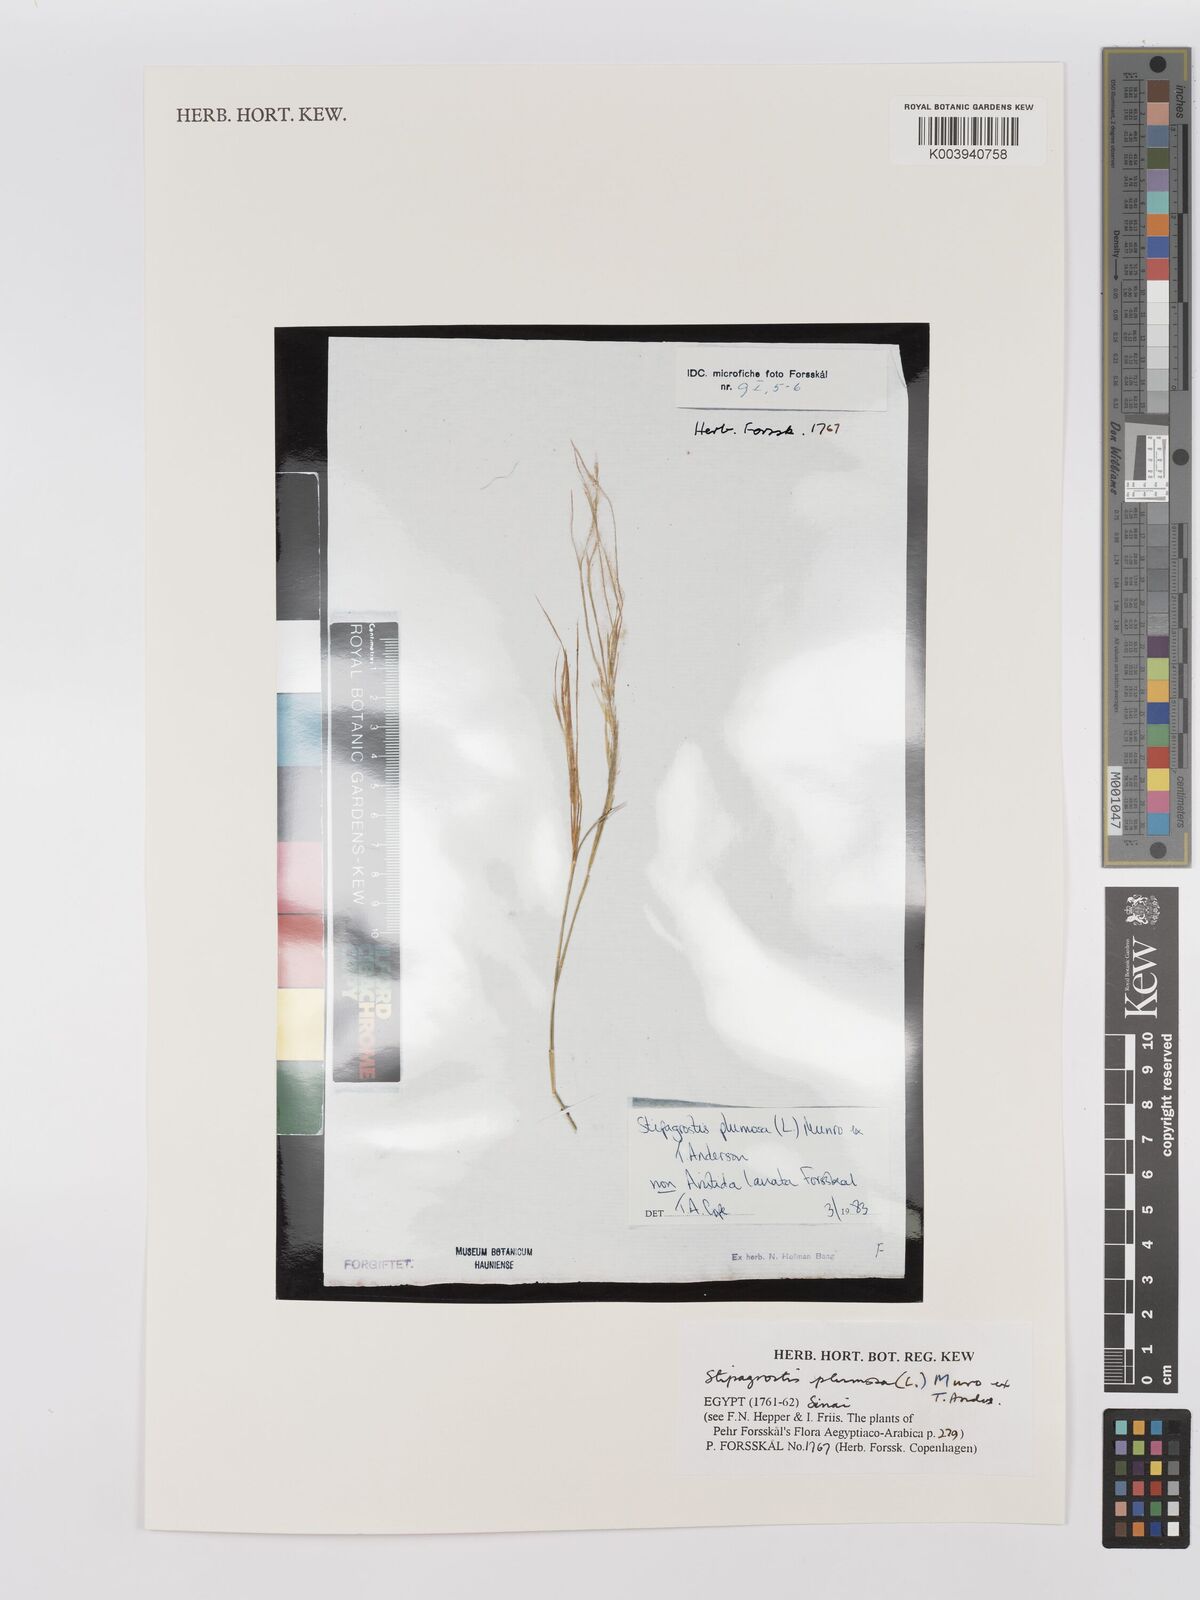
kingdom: Plantae
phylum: Tracheophyta
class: Liliopsida
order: Poales
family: Poaceae
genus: Stipagrostis
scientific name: Stipagrostis plumosa
